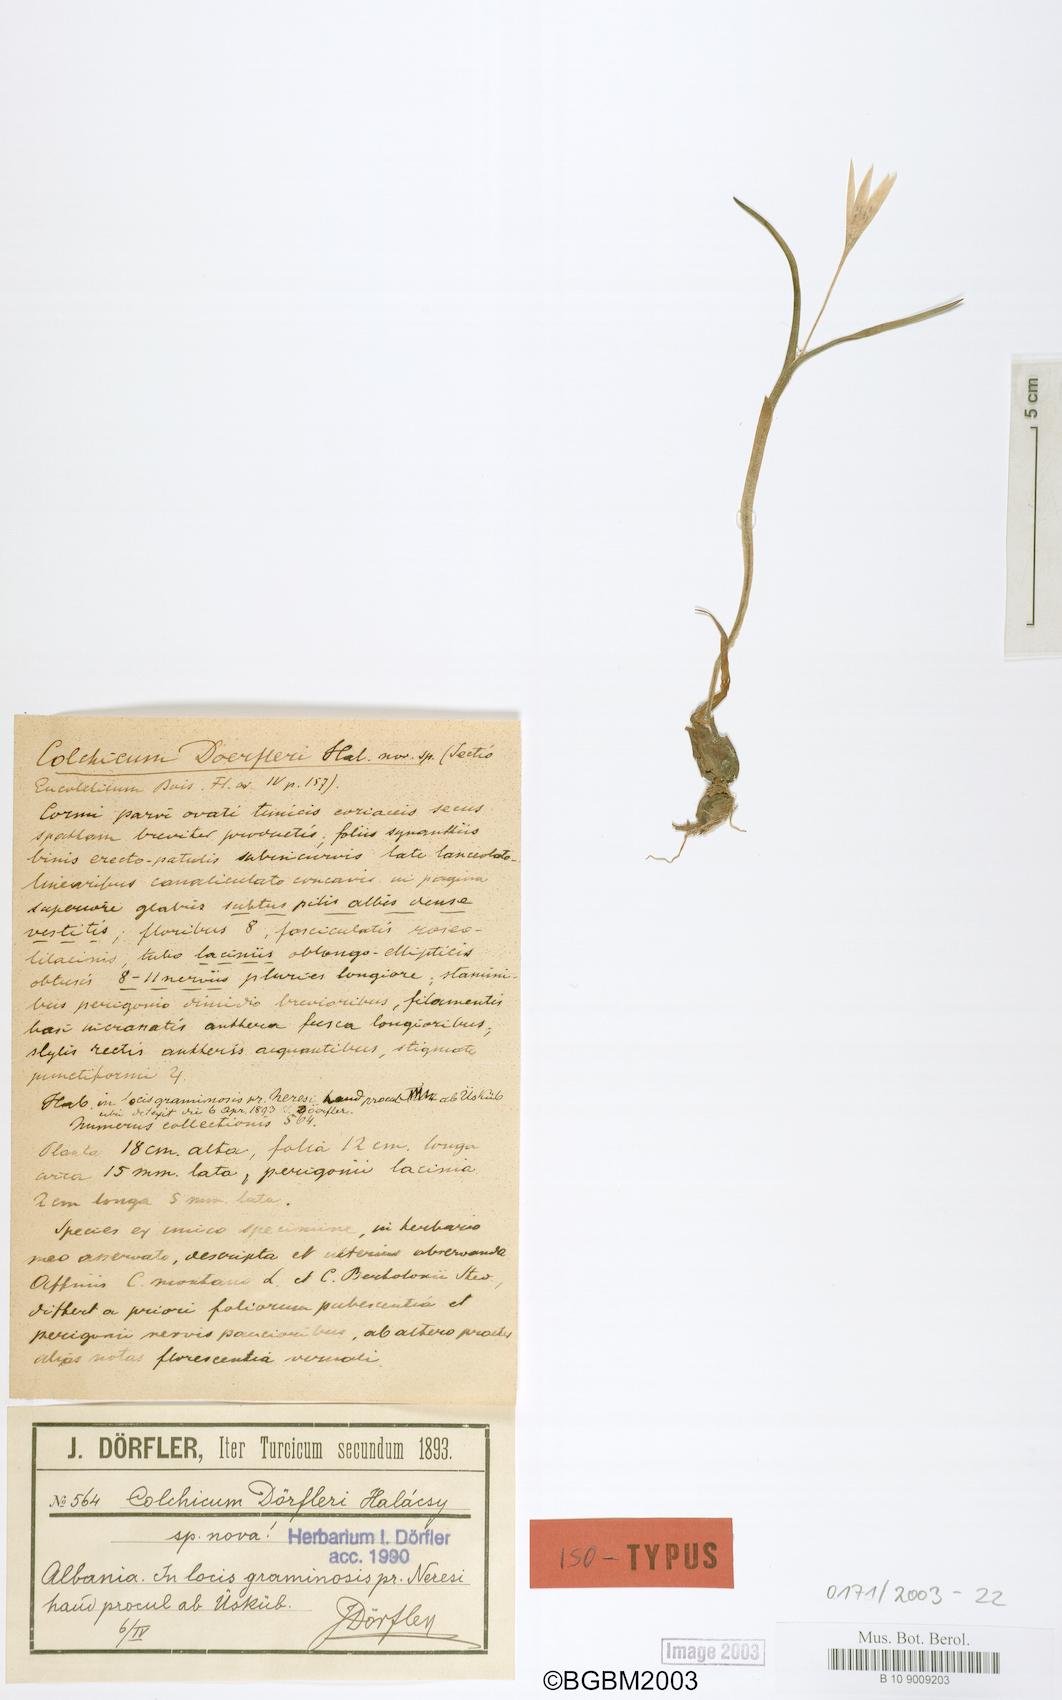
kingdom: Plantae
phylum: Tracheophyta
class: Liliopsida
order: Liliales
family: Colchicaceae
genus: Colchicum
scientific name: Colchicum doerfleri
